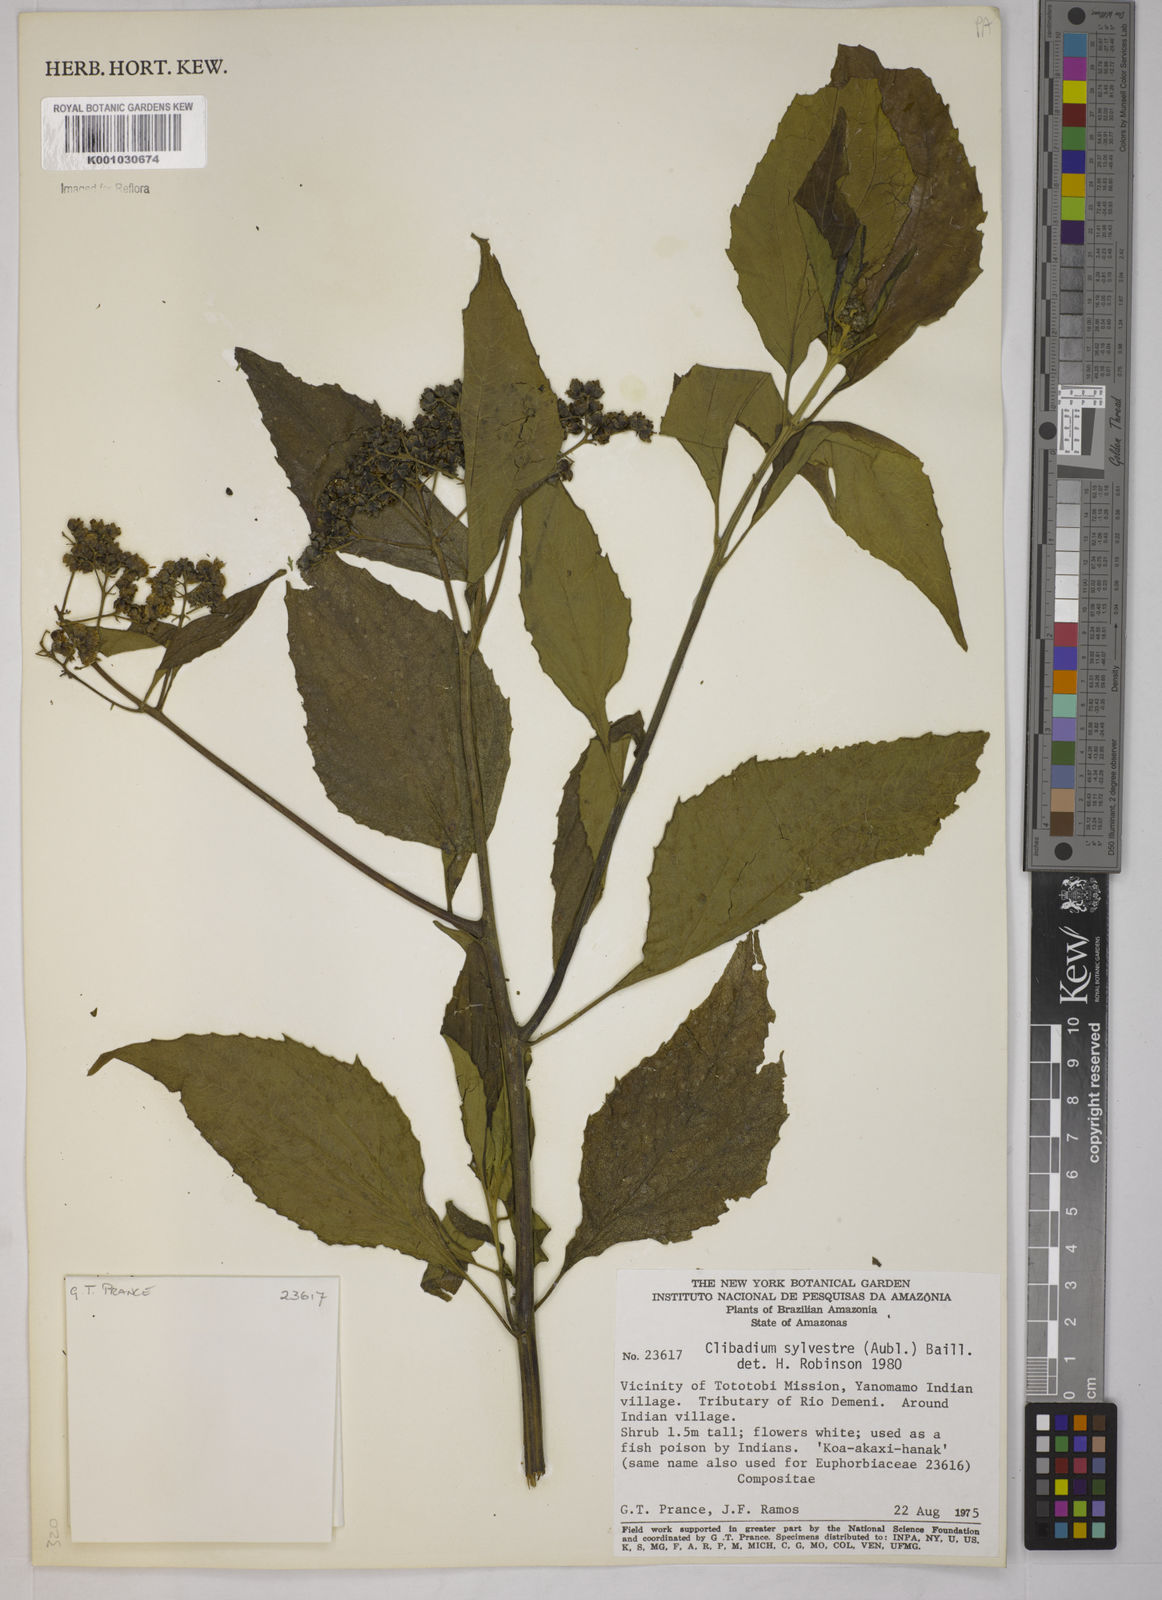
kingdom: Plantae
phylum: Tracheophyta
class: Magnoliopsida
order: Asterales
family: Asteraceae
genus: Clibadium
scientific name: Clibadium sylvestre
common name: Barbasco
